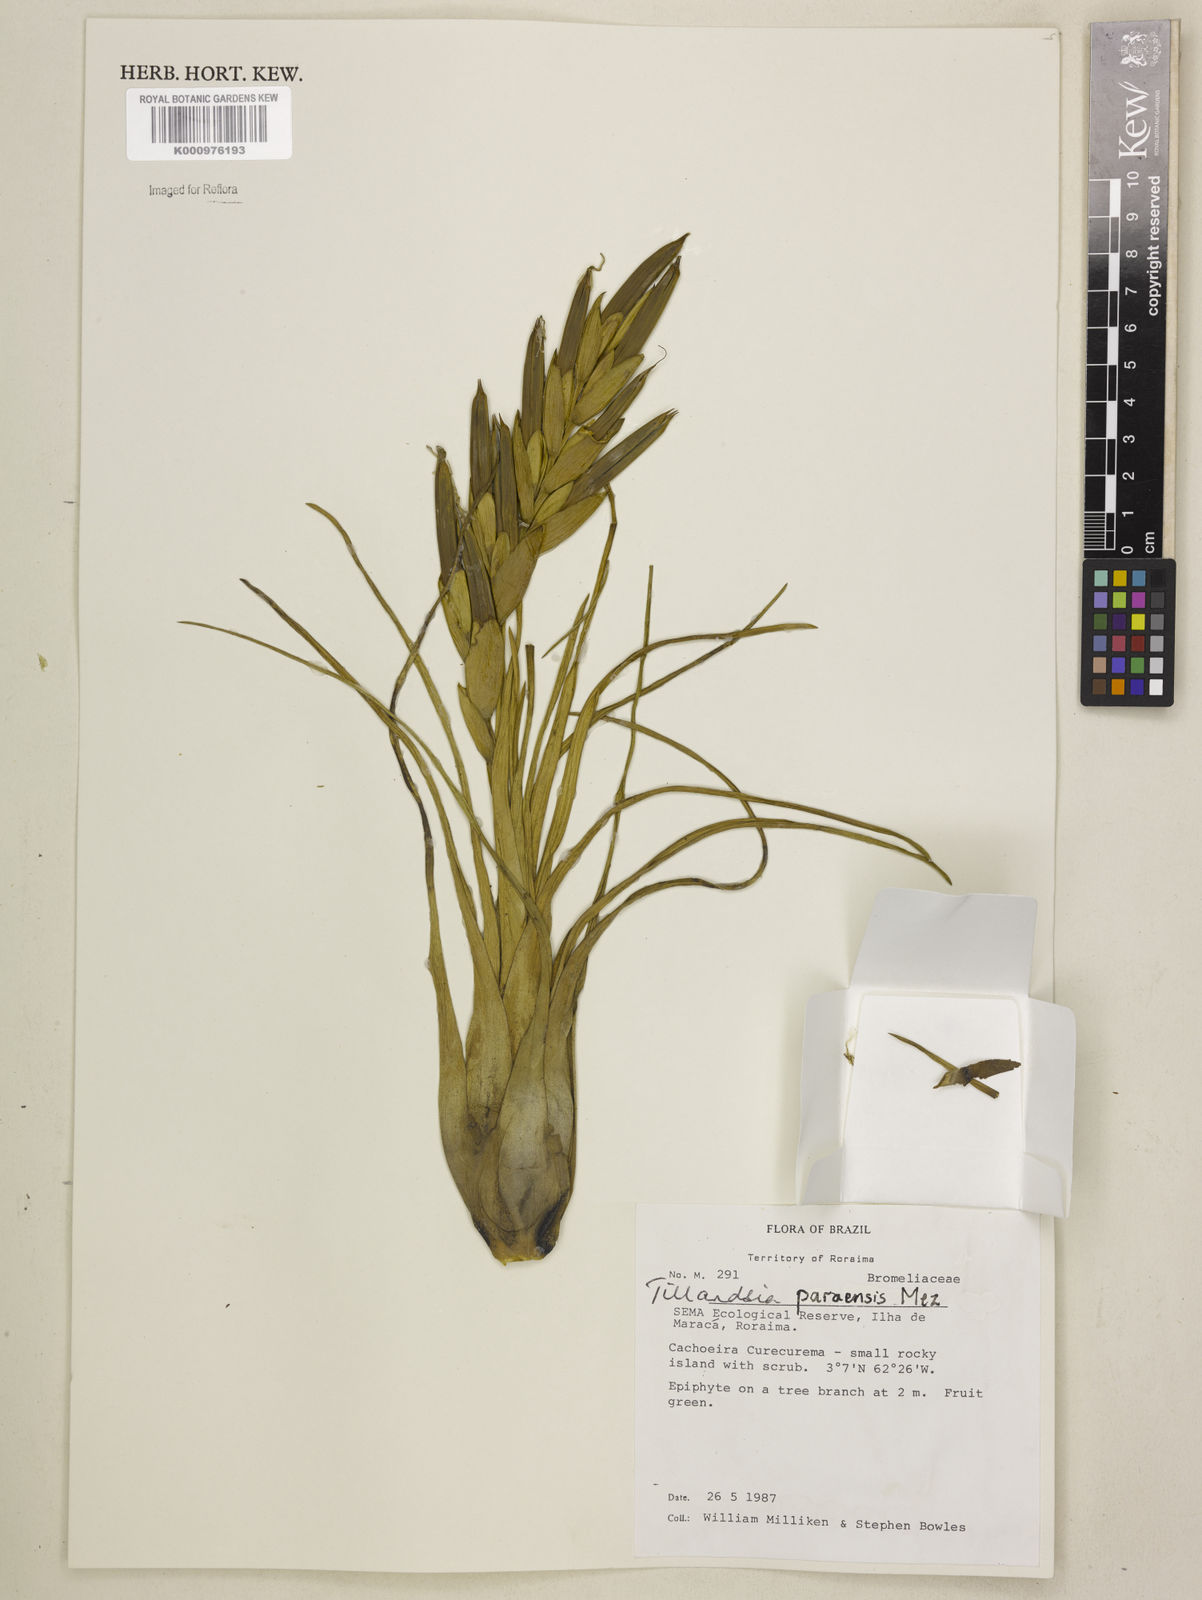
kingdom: Plantae
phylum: Tracheophyta
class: Liliopsida
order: Poales
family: Bromeliaceae
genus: Tillandsia
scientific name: Tillandsia paraensis
